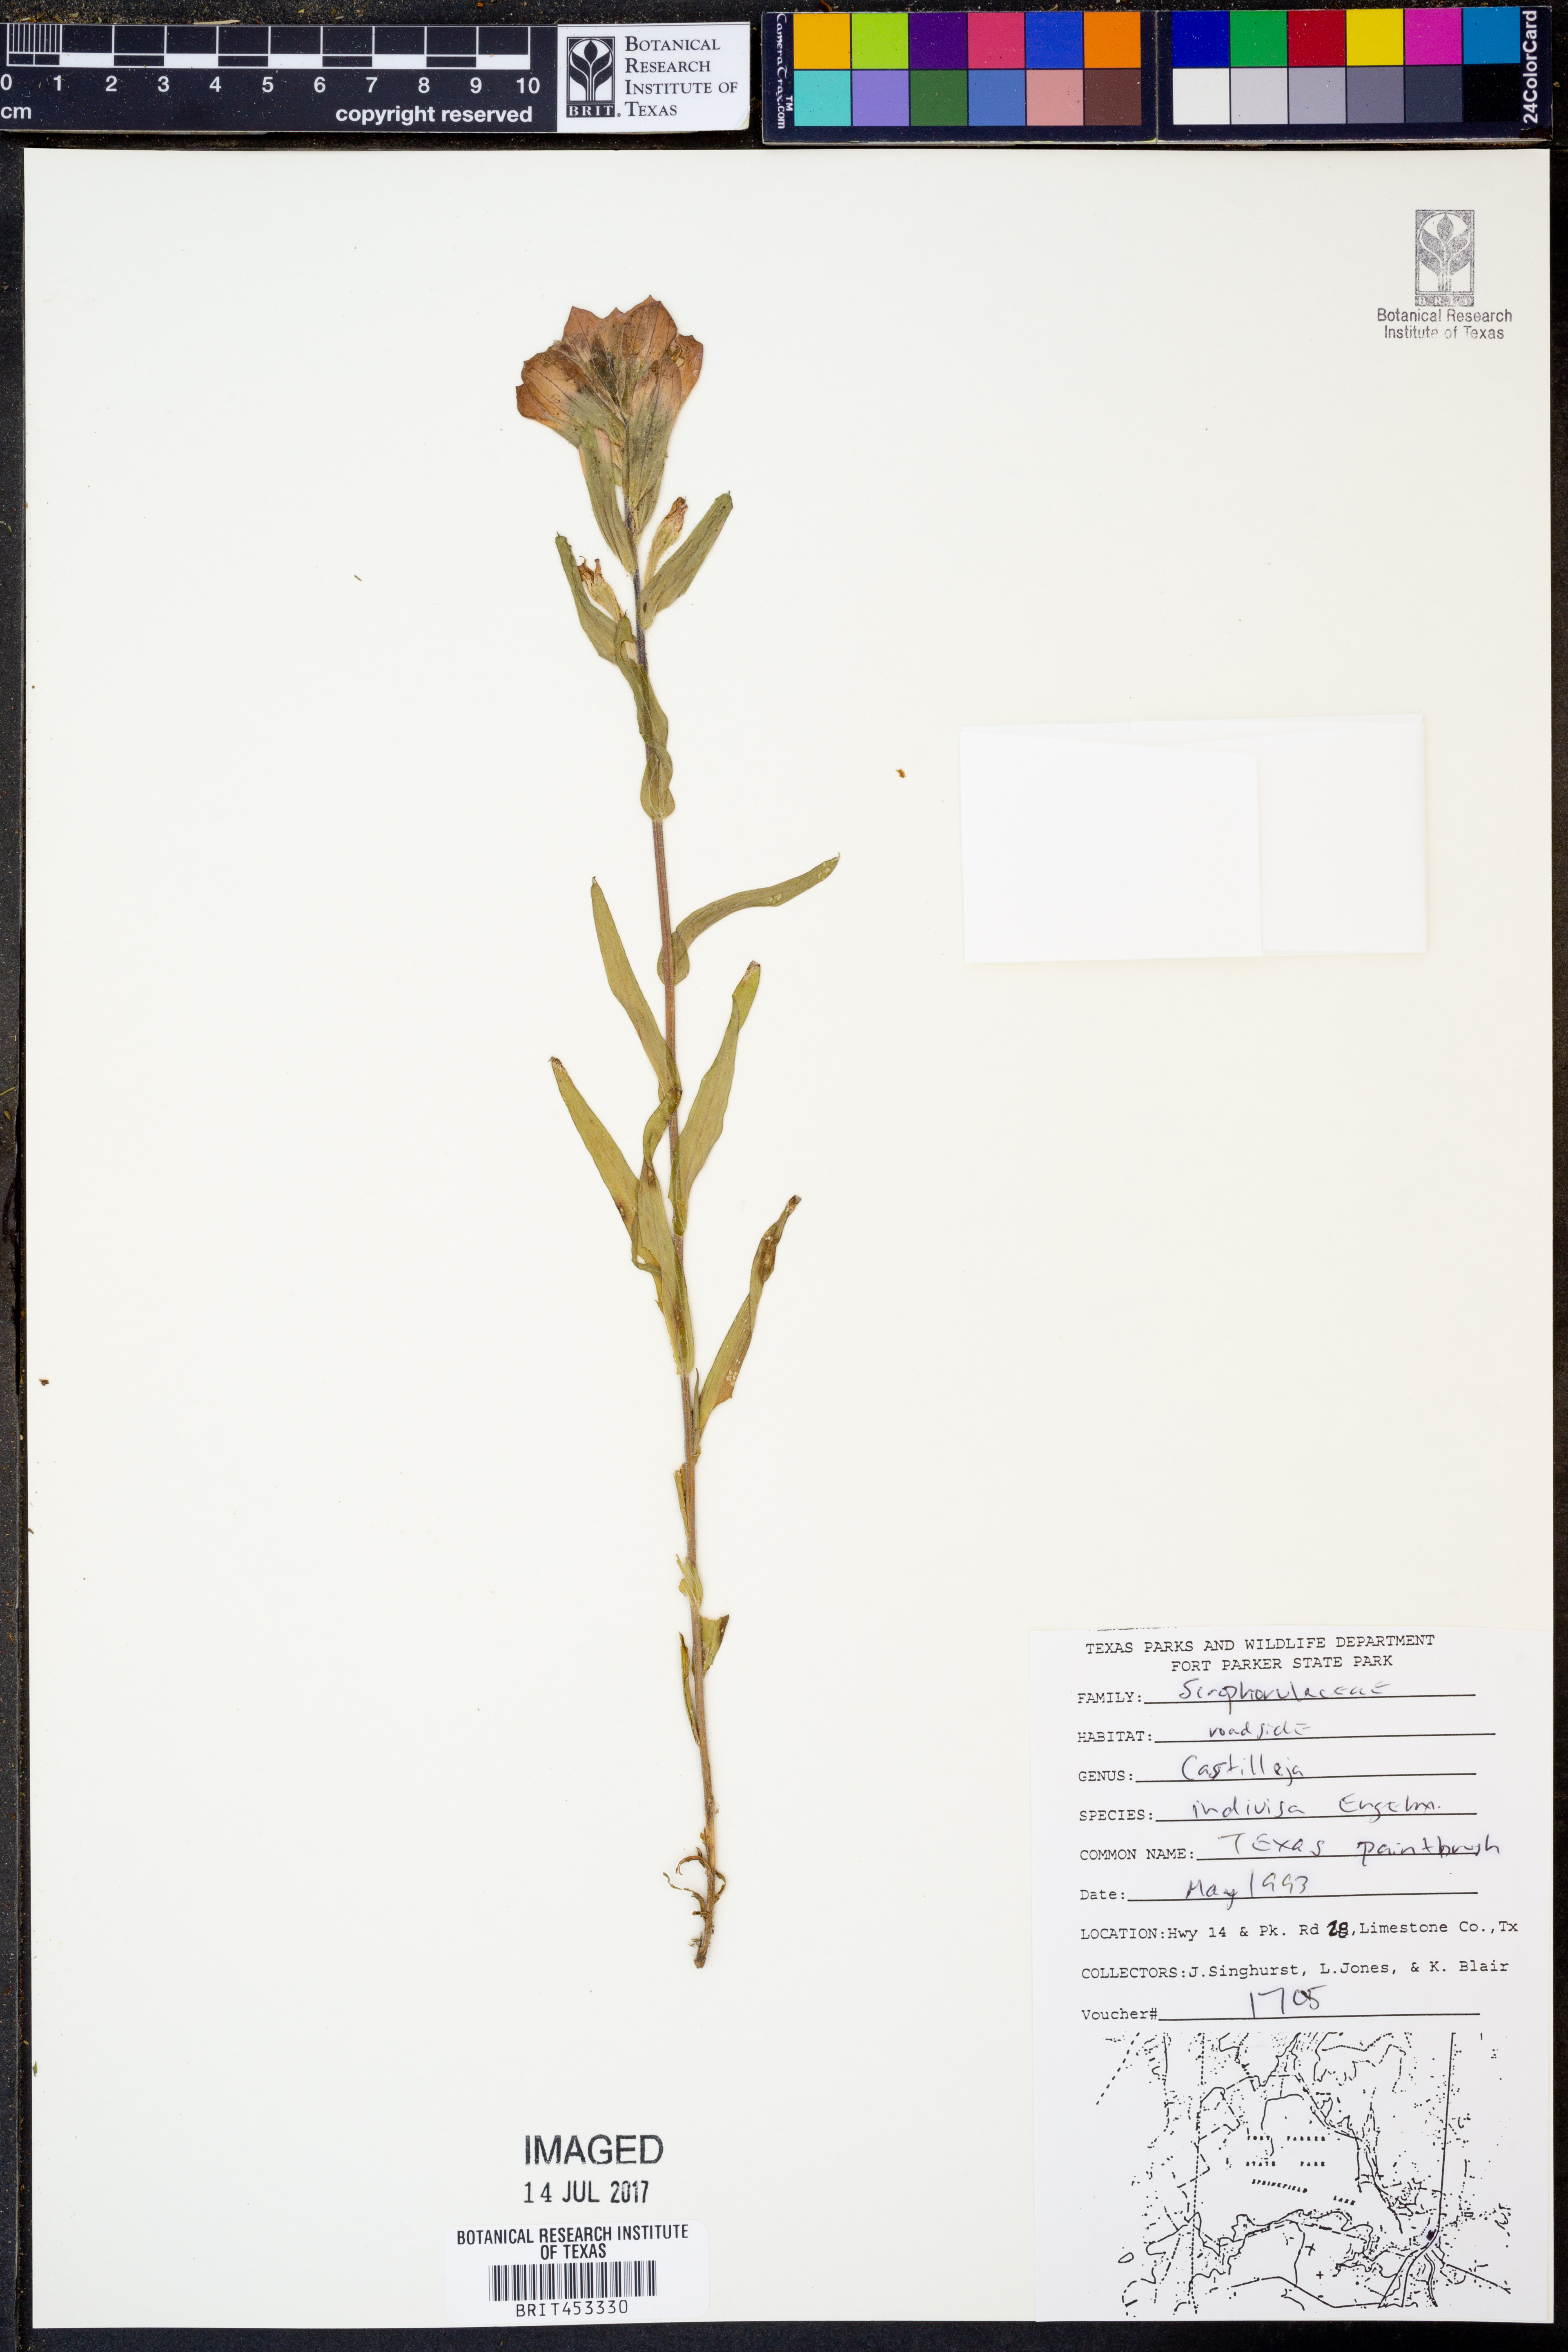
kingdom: Plantae
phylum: Tracheophyta
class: Magnoliopsida
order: Lamiales
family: Orobanchaceae
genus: Castilleja
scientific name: Castilleja indivisa
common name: Texas paintbrush
